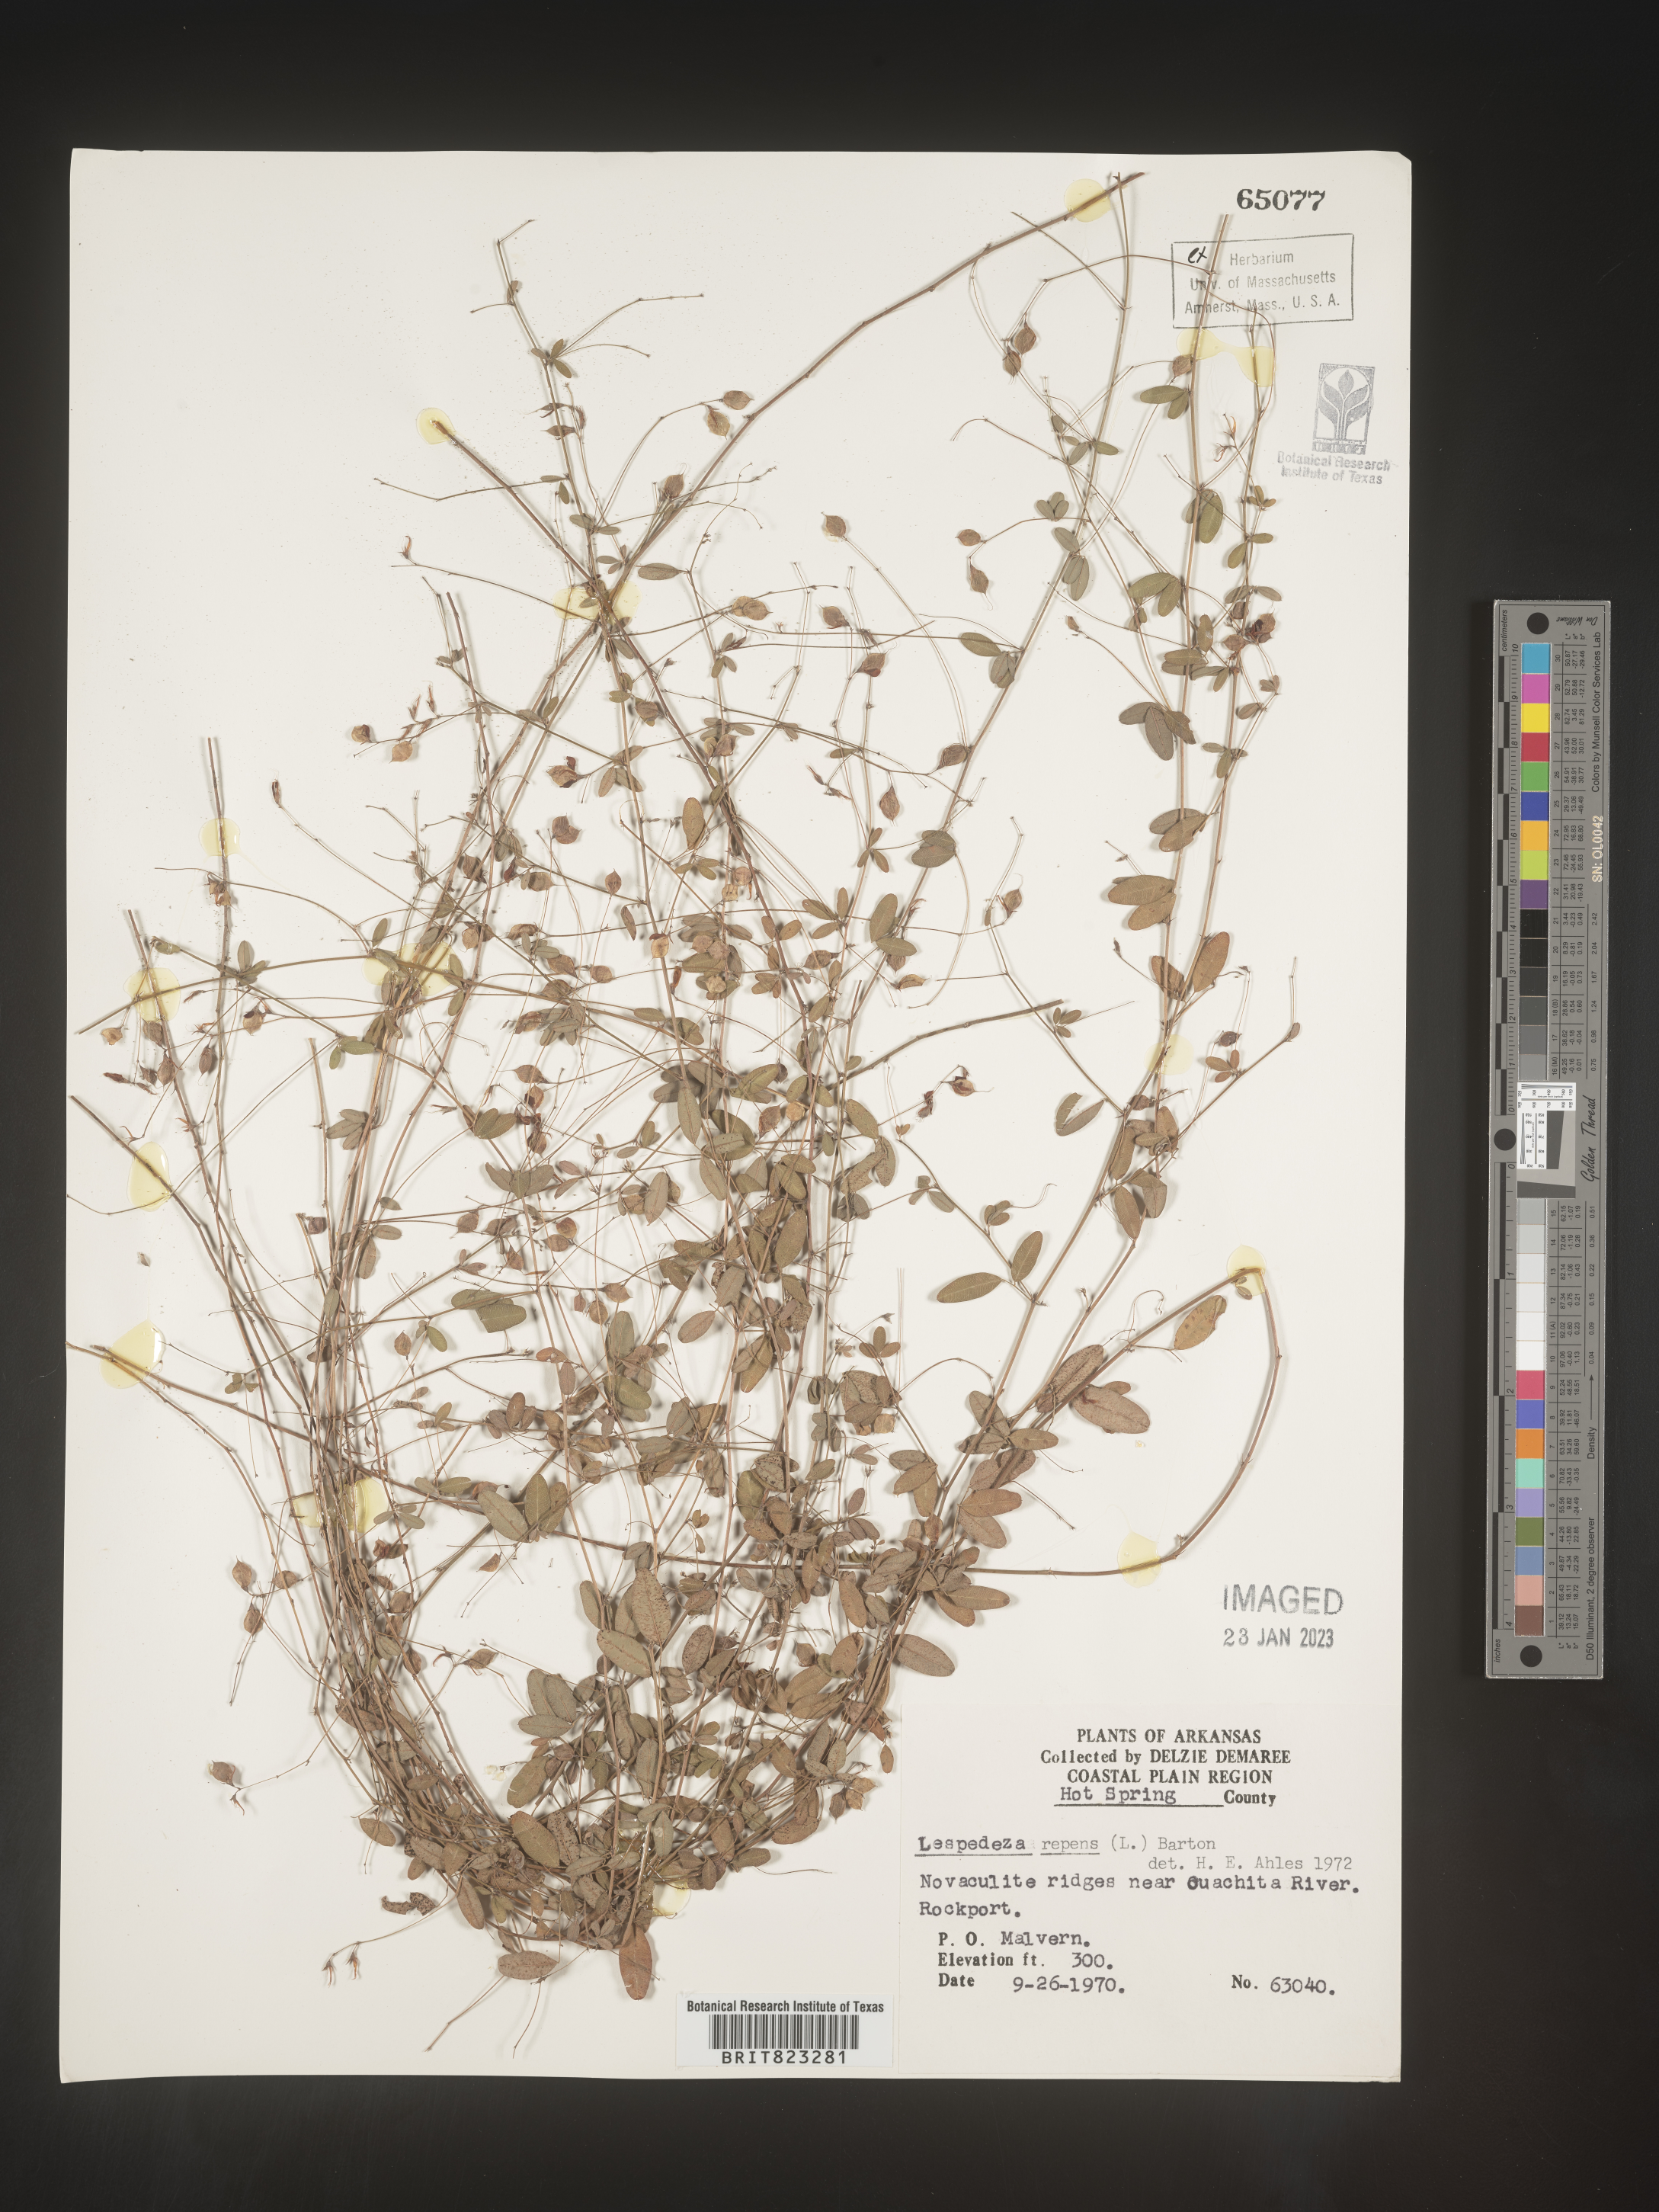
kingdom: Plantae
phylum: Tracheophyta
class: Magnoliopsida
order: Fabales
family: Fabaceae
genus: Lespedeza
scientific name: Lespedeza repens
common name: Creeping bush-clover
